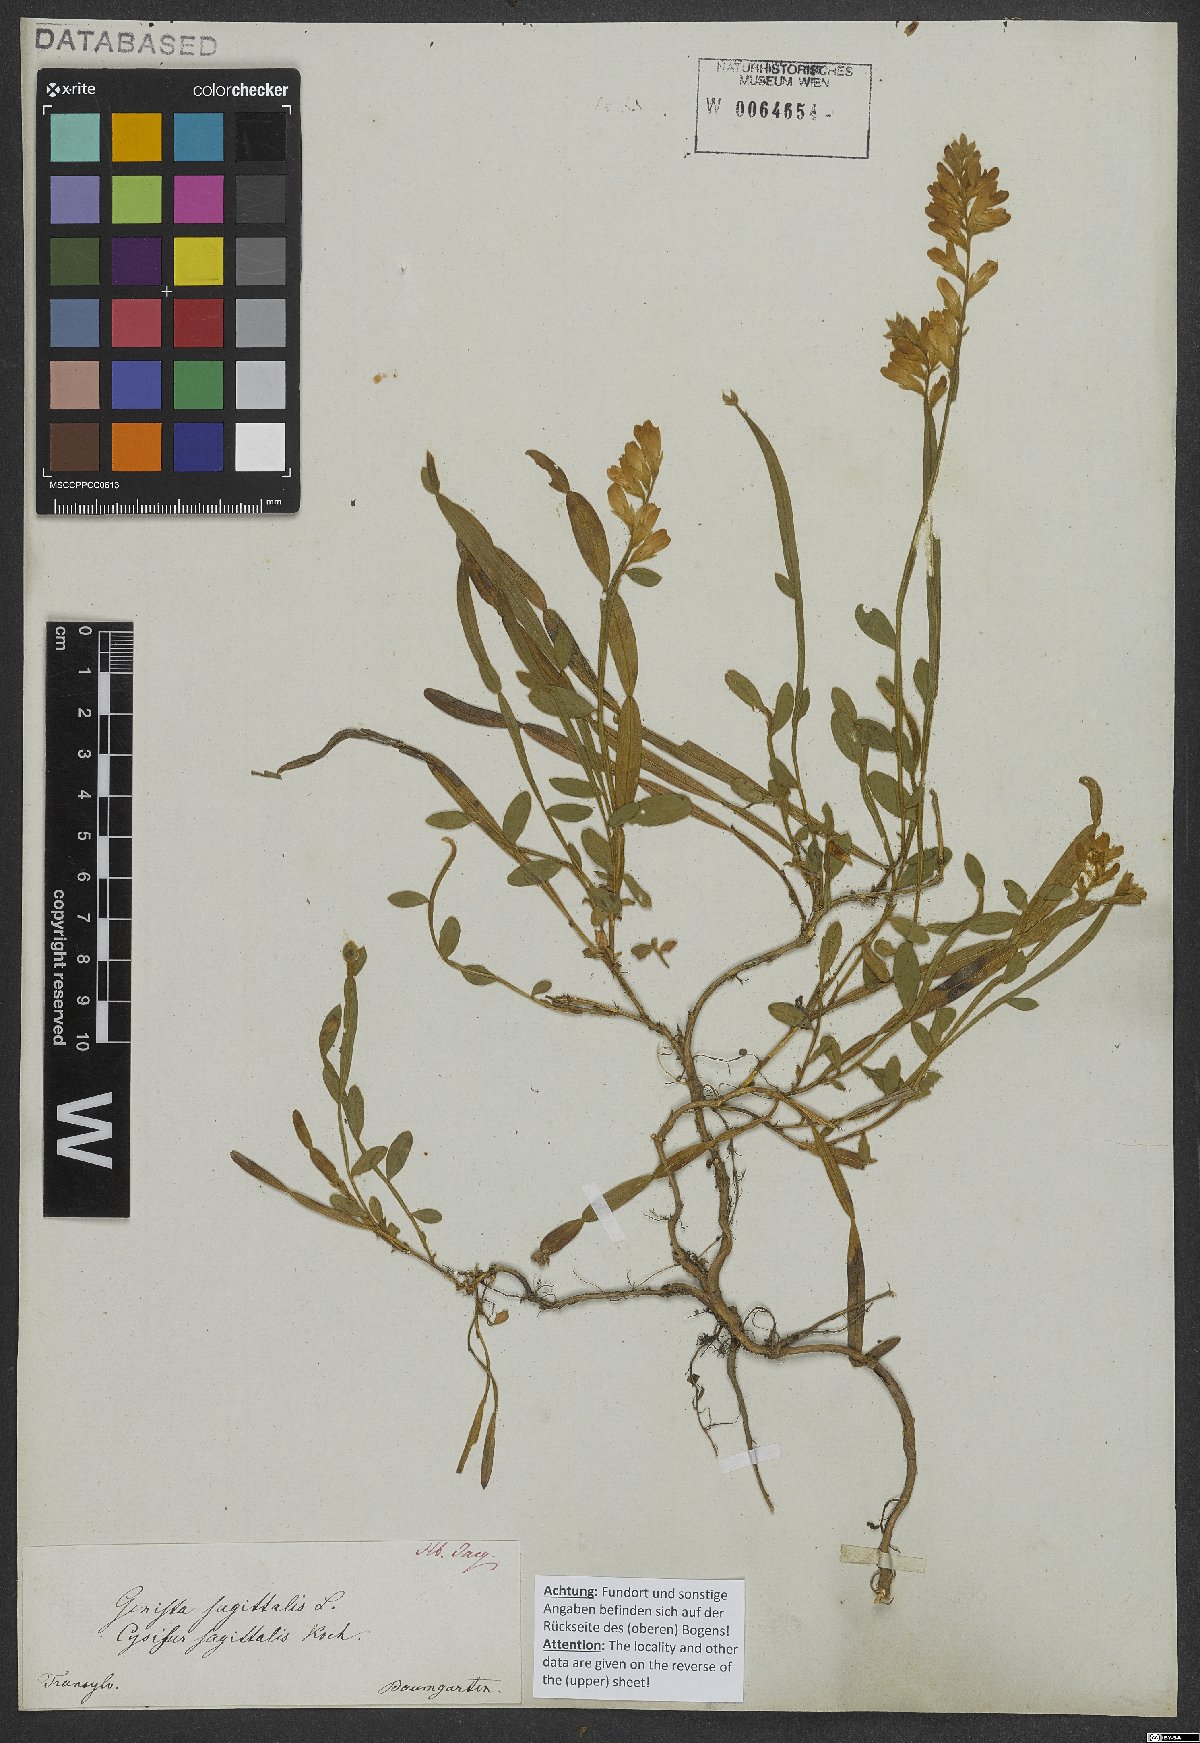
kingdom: Plantae
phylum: Tracheophyta
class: Magnoliopsida
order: Fabales
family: Fabaceae
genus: Genista
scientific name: Genista sagittalis
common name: Winged greenweed
